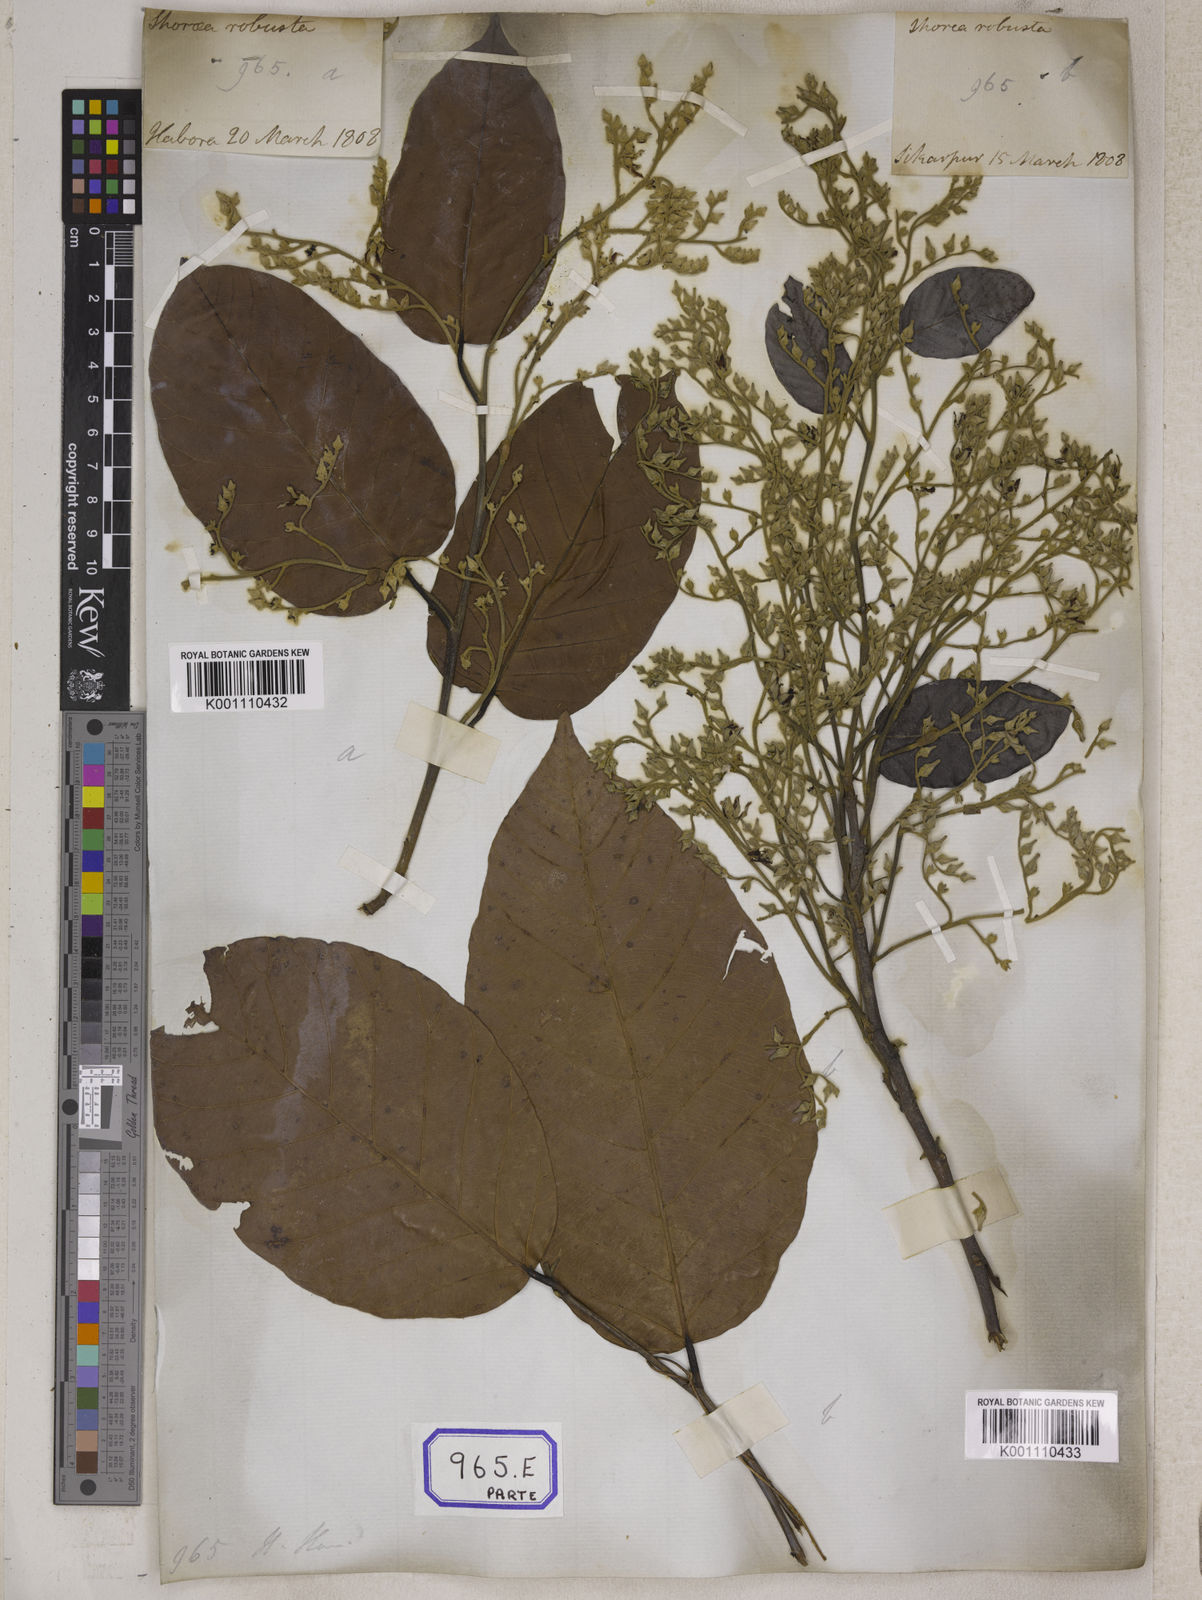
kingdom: Plantae
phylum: Tracheophyta
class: Magnoliopsida
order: Malvales
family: Dipterocarpaceae
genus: Shorea
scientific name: Shorea
